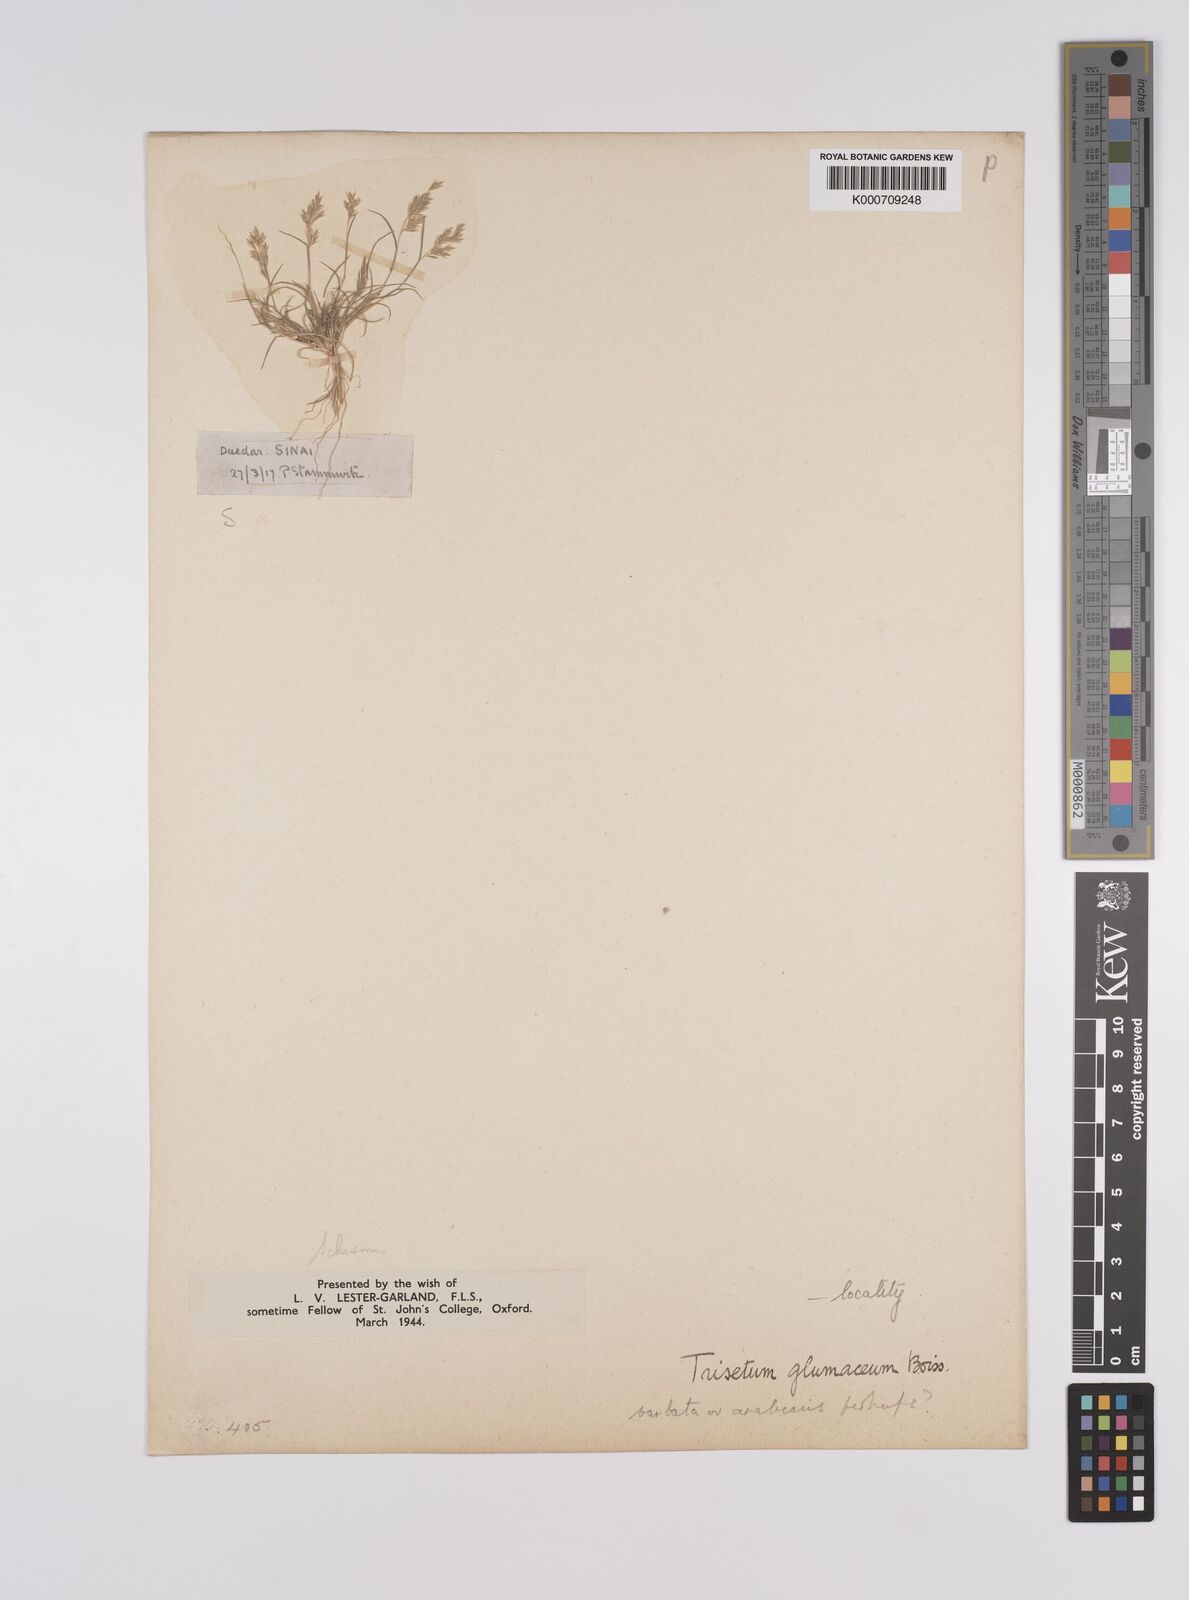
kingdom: Plantae
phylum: Tracheophyta
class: Liliopsida
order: Poales
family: Poaceae
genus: Schismus
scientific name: Schismus barbatus
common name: Kelch-grass
